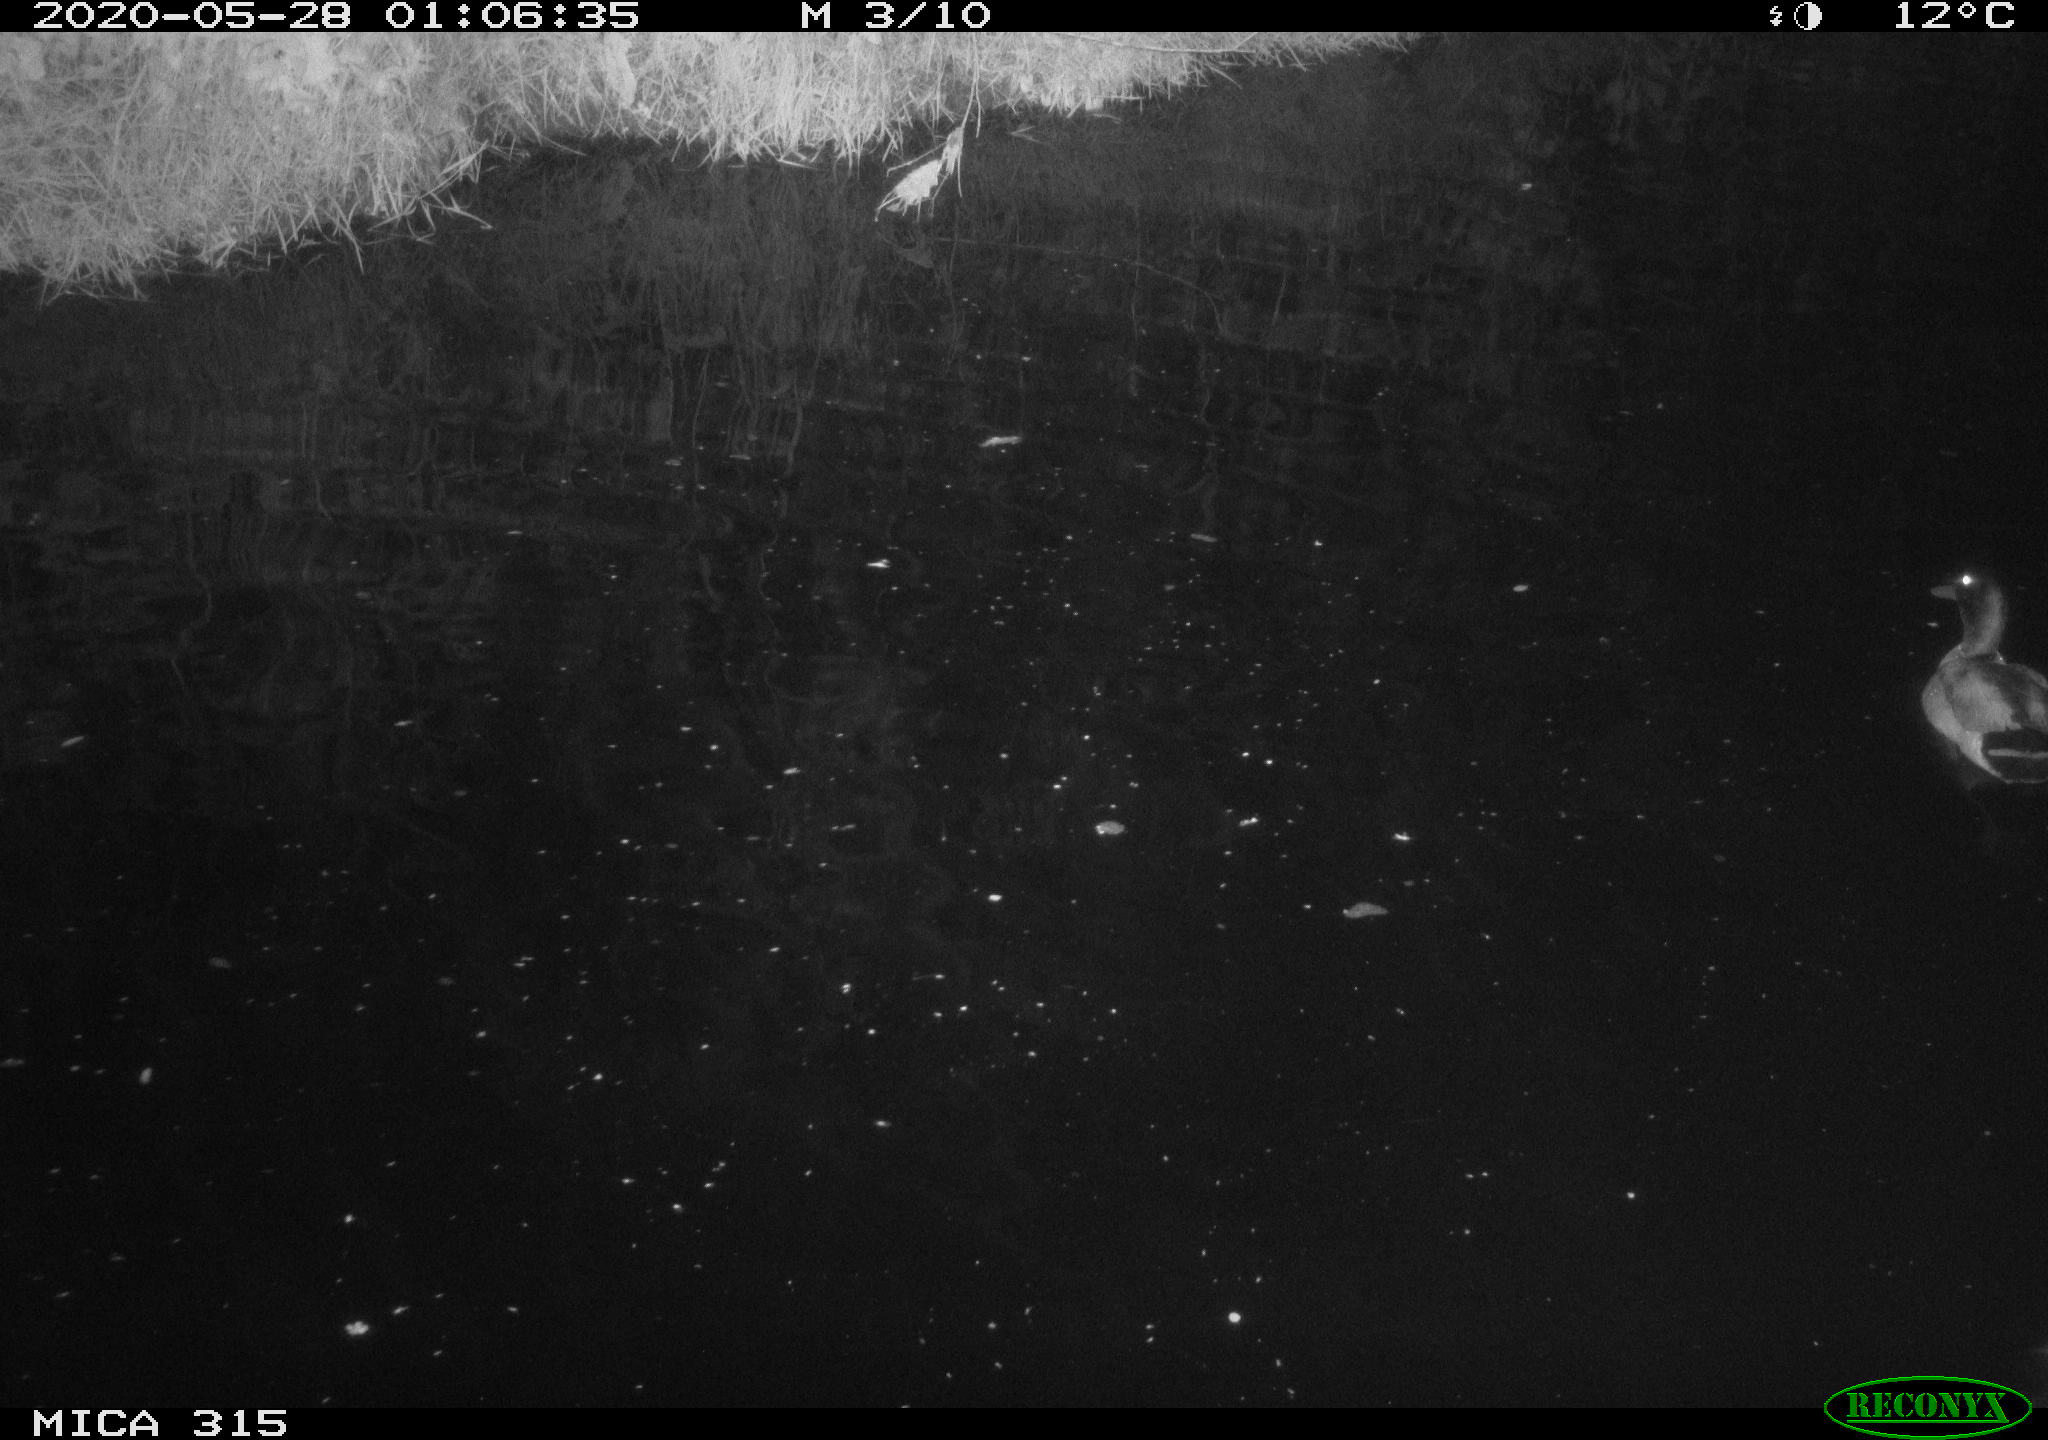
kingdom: Animalia
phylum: Chordata
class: Aves
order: Anseriformes
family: Anatidae
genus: Anas
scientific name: Anas platyrhynchos
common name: Mallard
